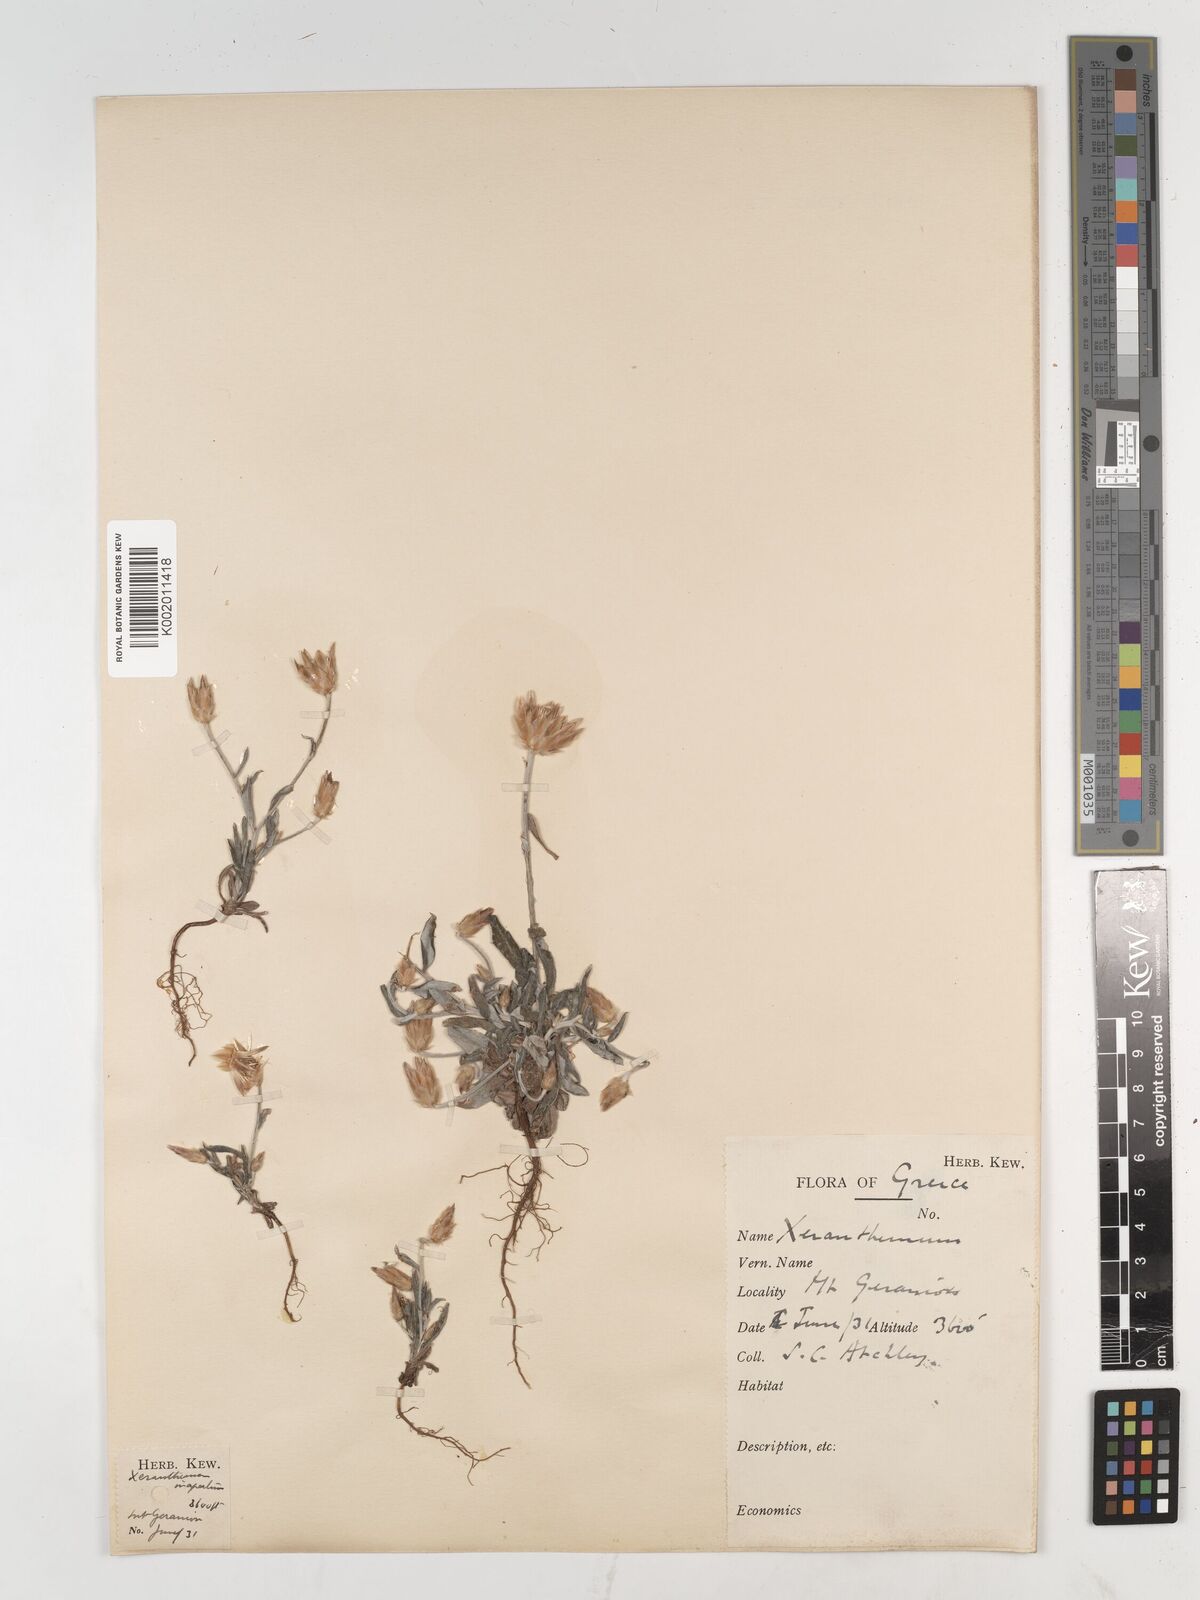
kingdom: Plantae
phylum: Tracheophyta
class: Magnoliopsida
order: Asterales
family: Asteraceae
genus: Xeranthemum
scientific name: Xeranthemum inapertum
